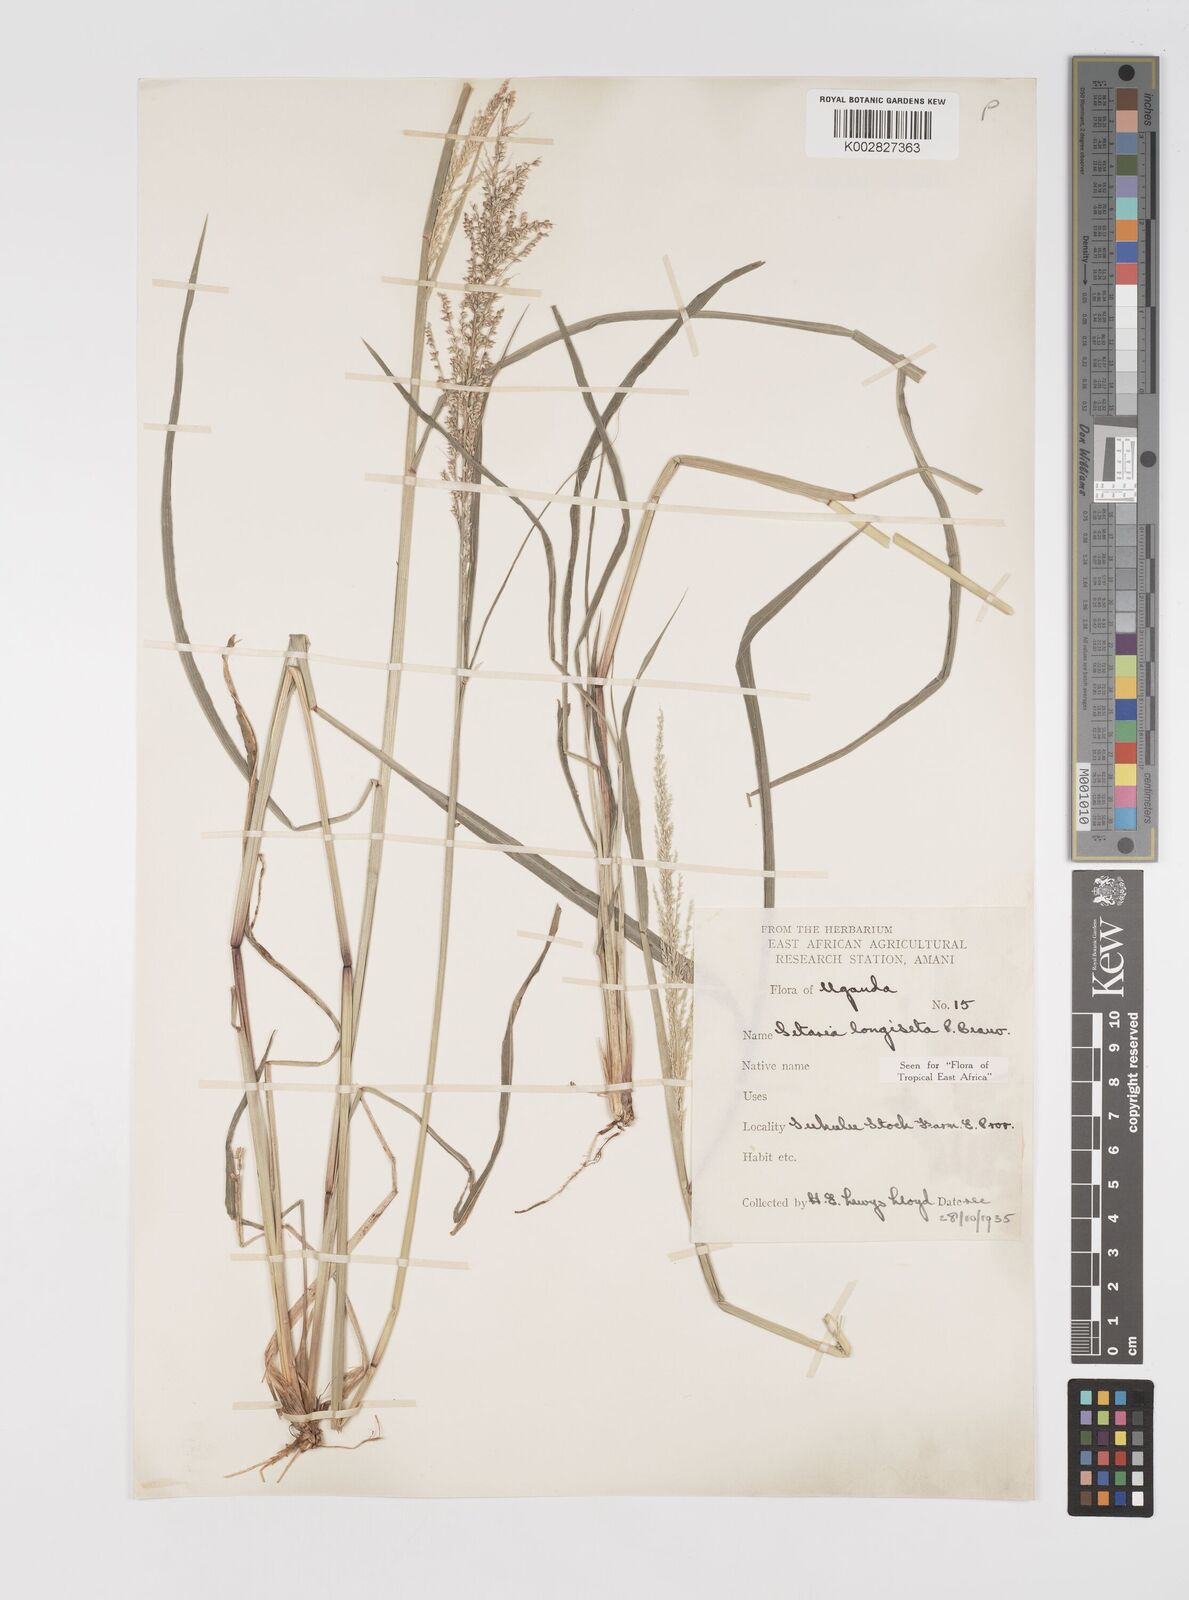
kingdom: Plantae
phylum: Tracheophyta
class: Liliopsida
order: Poales
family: Poaceae
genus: Setaria
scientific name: Setaria longiseta
